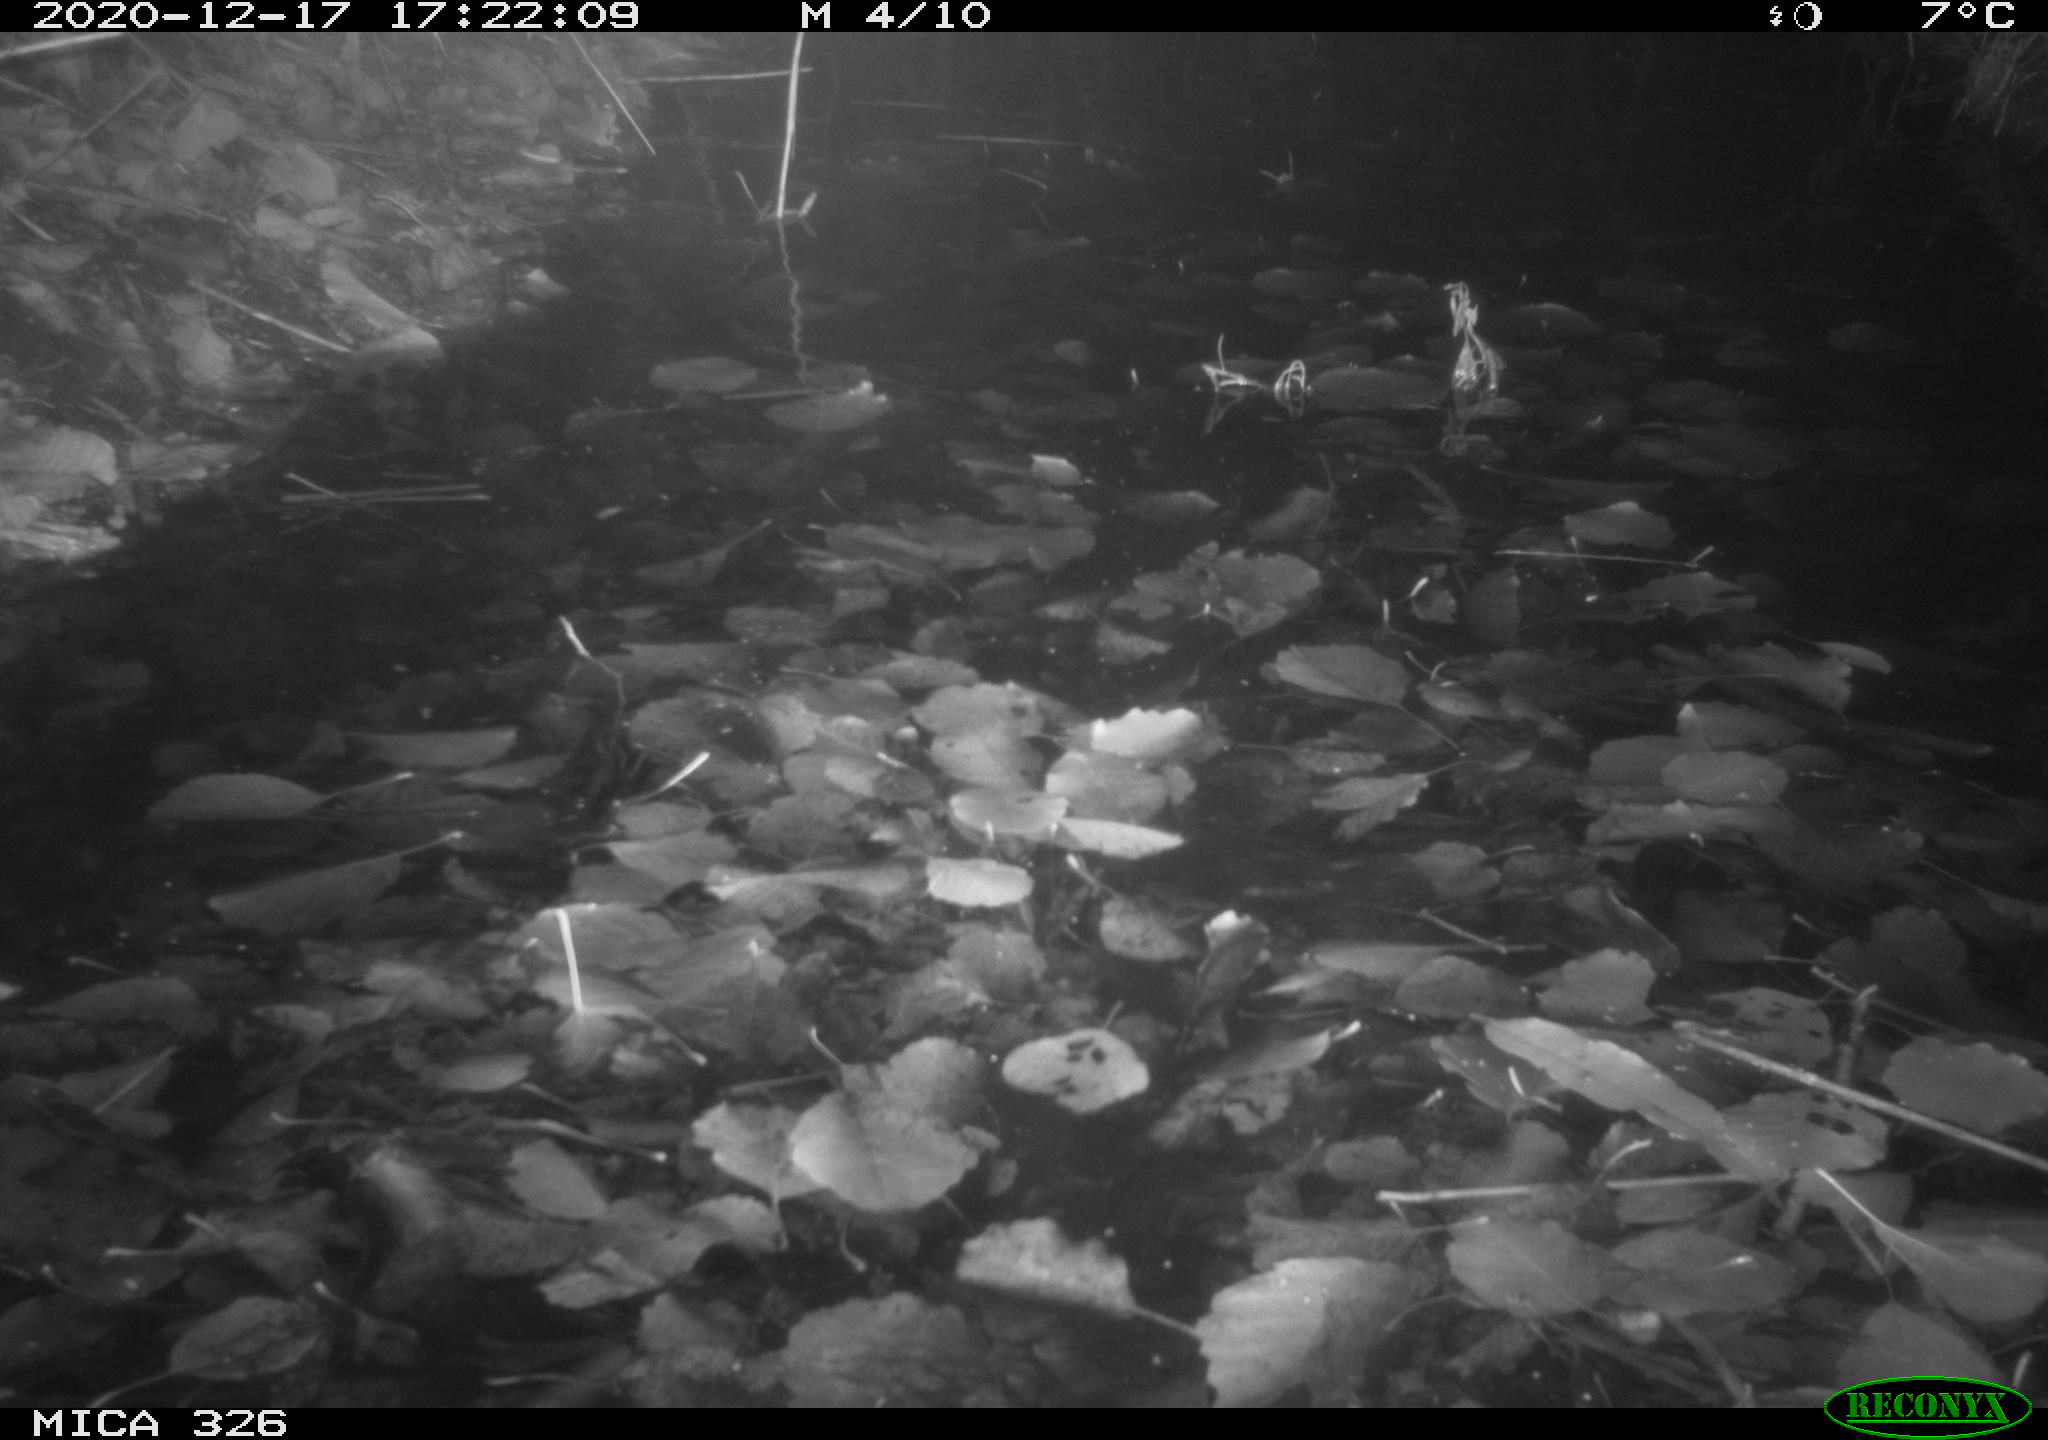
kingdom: Animalia
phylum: Chordata
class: Mammalia
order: Carnivora
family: Mustelidae
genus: Lutra
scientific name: Lutra lutra
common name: European otter
